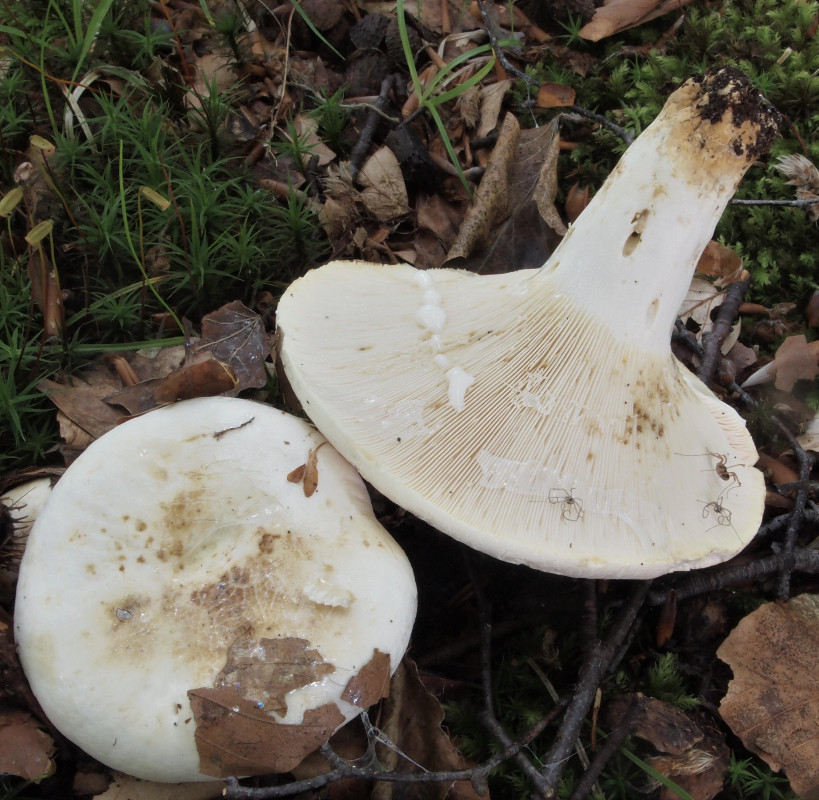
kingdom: Fungi
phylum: Basidiomycota
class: Agaricomycetes
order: Russulales
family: Russulaceae
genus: Lactifluus
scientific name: Lactifluus piperatus
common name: peber-mælkehat
